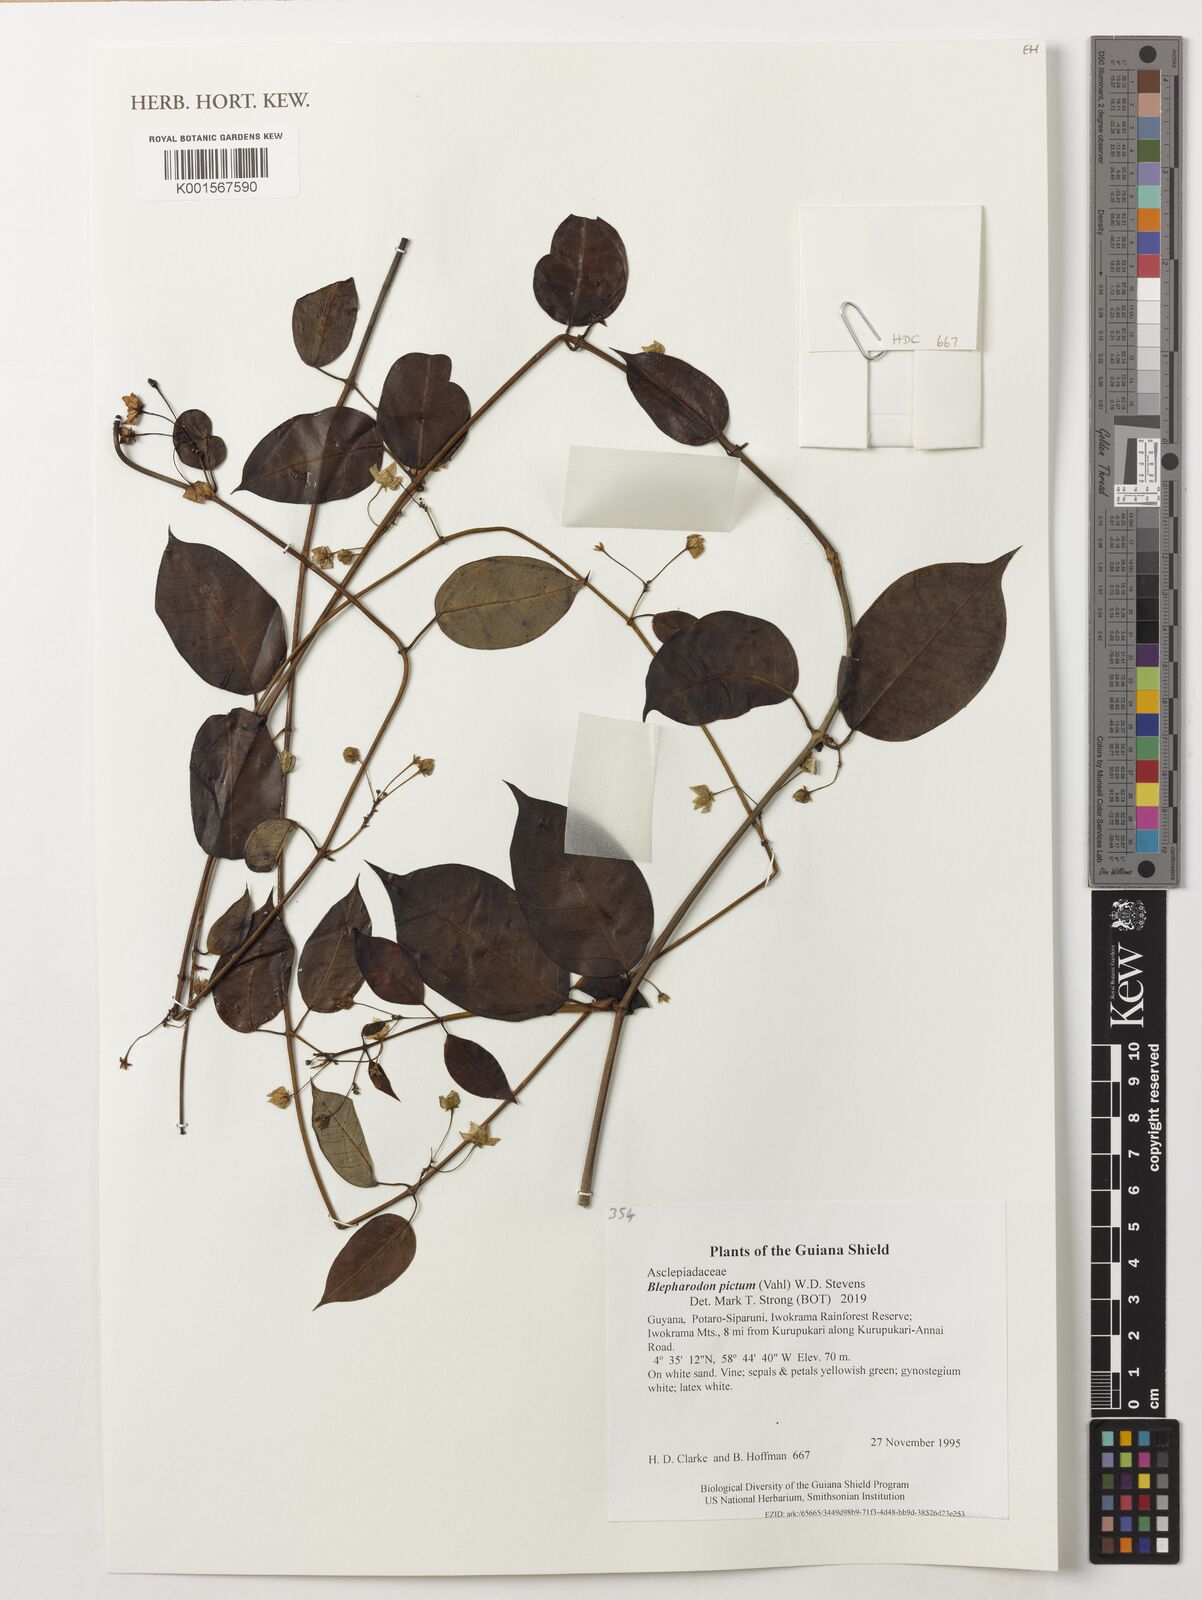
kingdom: Plantae
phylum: Tracheophyta
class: Magnoliopsida
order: Gentianales
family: Apocynaceae
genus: Blepharodon
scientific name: Blepharodon pictum
